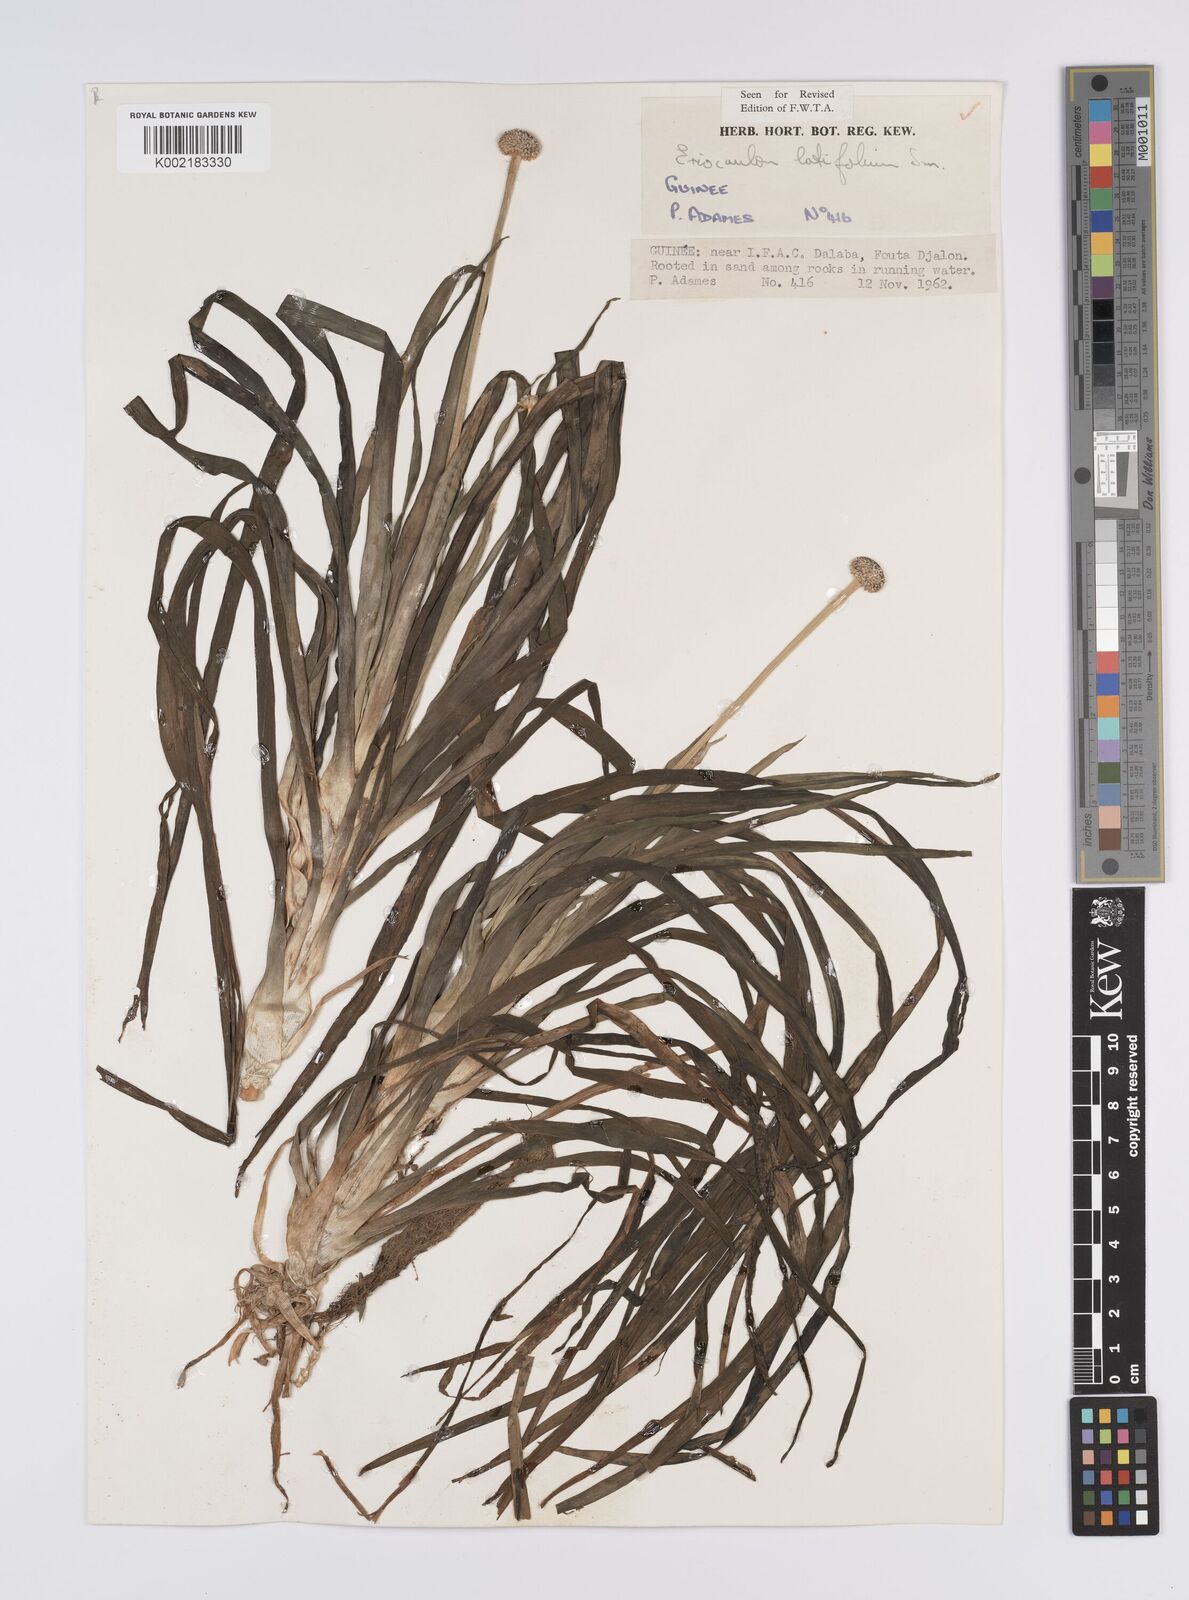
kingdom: Plantae
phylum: Tracheophyta
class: Liliopsida
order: Poales
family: Eriocaulaceae
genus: Eriocaulon
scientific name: Eriocaulon latifolium
